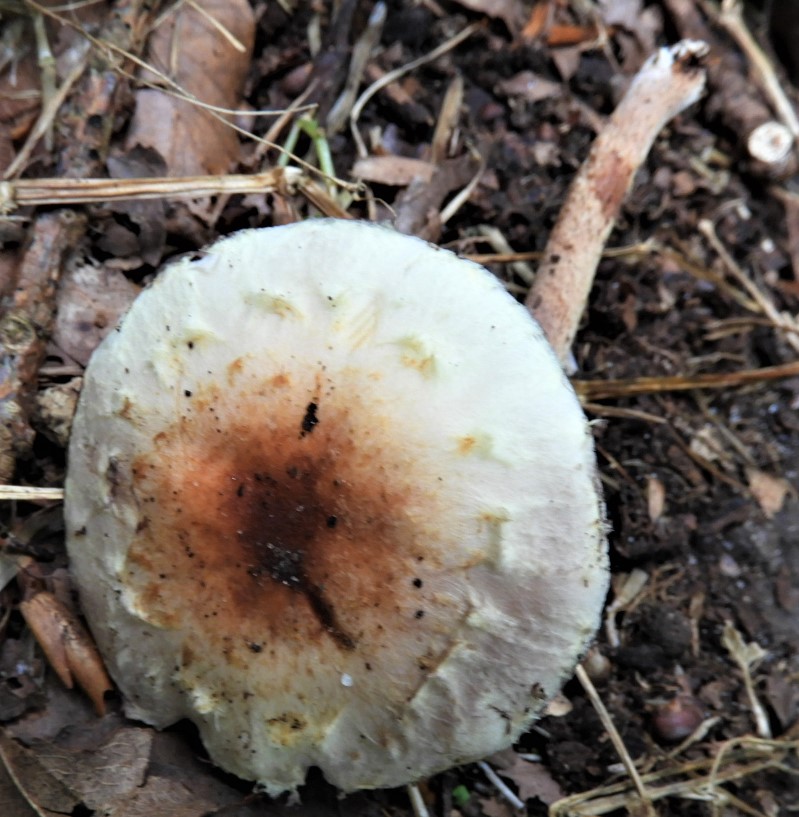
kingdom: Fungi
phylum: Basidiomycota
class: Agaricomycetes
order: Agaricales
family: Strophariaceae
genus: Hypholoma
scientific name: Hypholoma lateritium
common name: teglrød svovlhat
